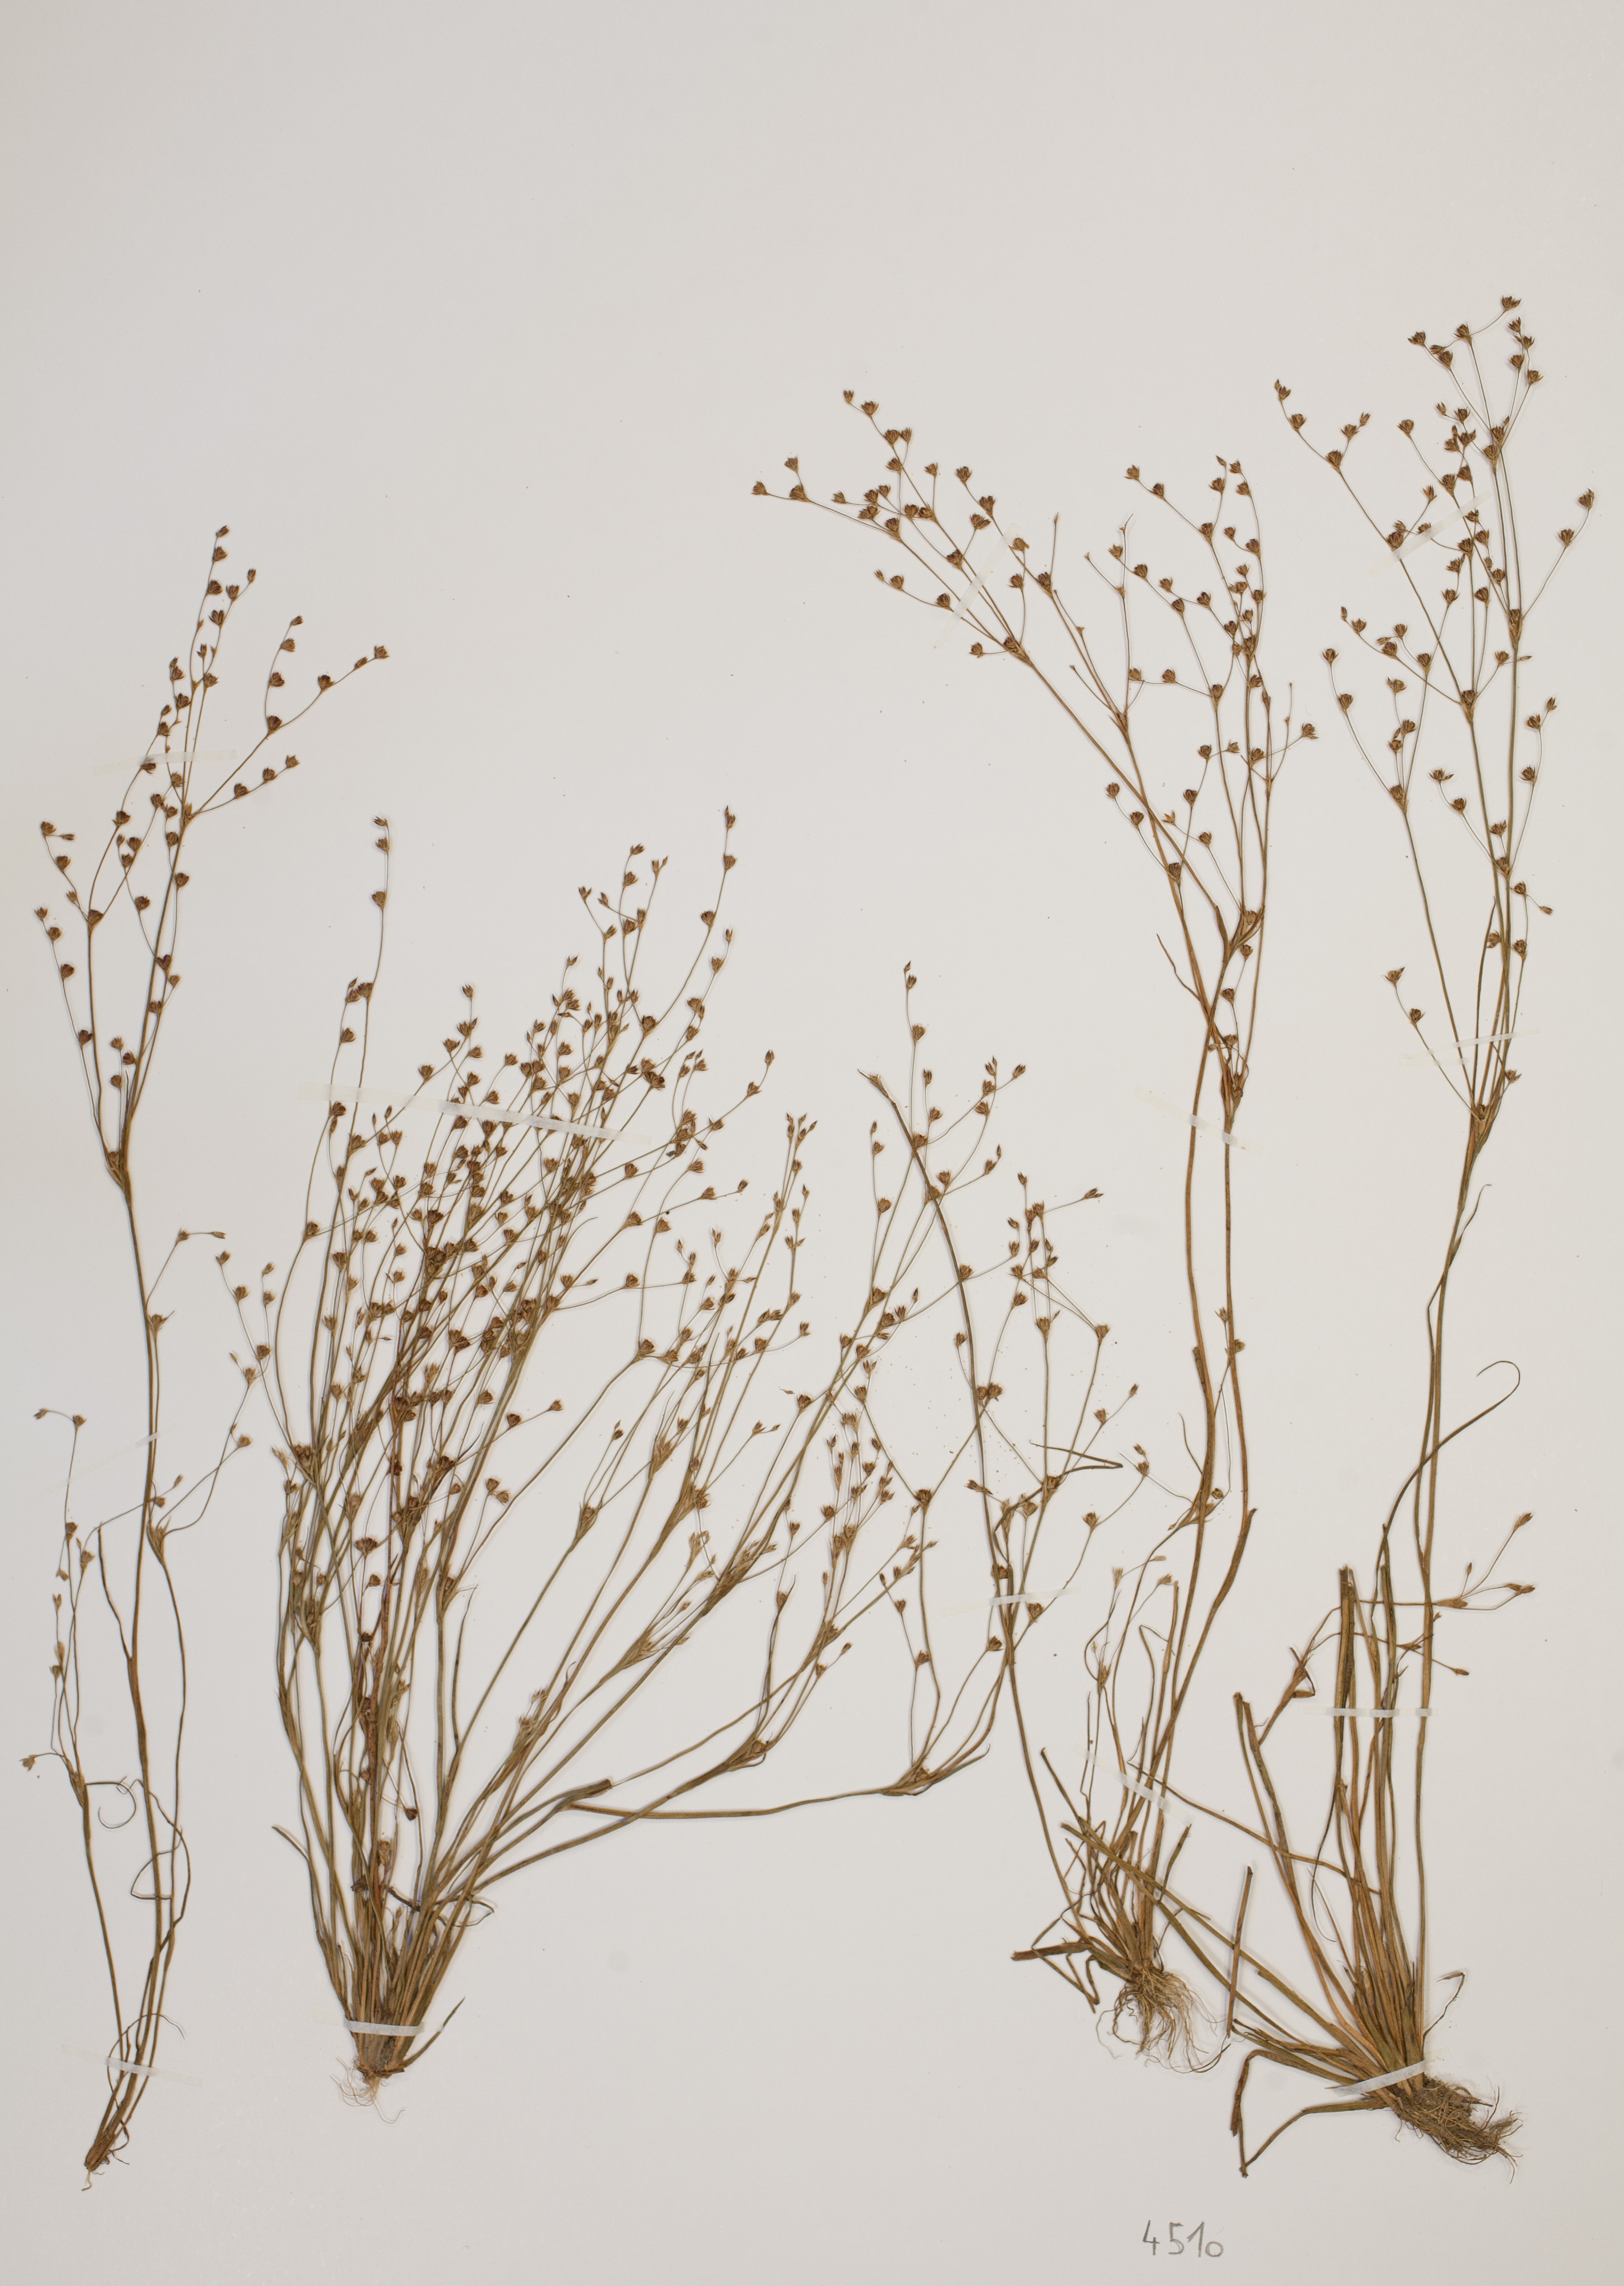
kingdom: Plantae
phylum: Tracheophyta
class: Liliopsida
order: Poales
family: Juncaceae
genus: Juncus
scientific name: Juncus tenageia
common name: Sand rush
